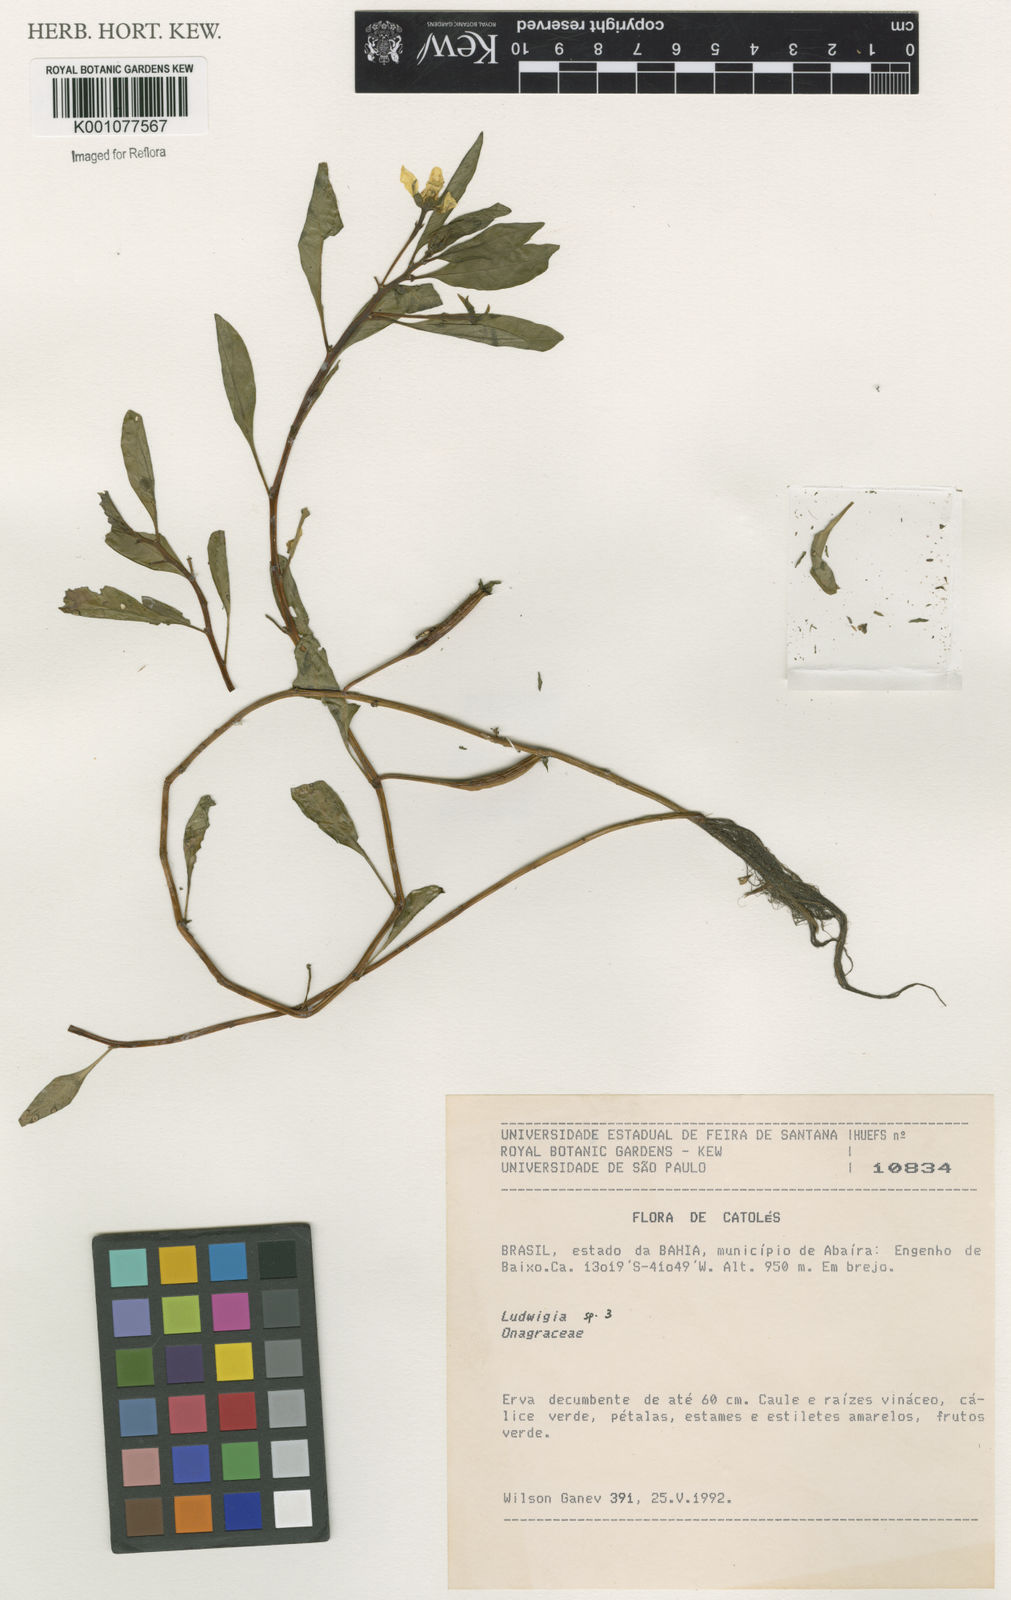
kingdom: Plantae
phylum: Tracheophyta
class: Magnoliopsida
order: Myrtales
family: Onagraceae
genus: Ludwigia
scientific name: Ludwigia
